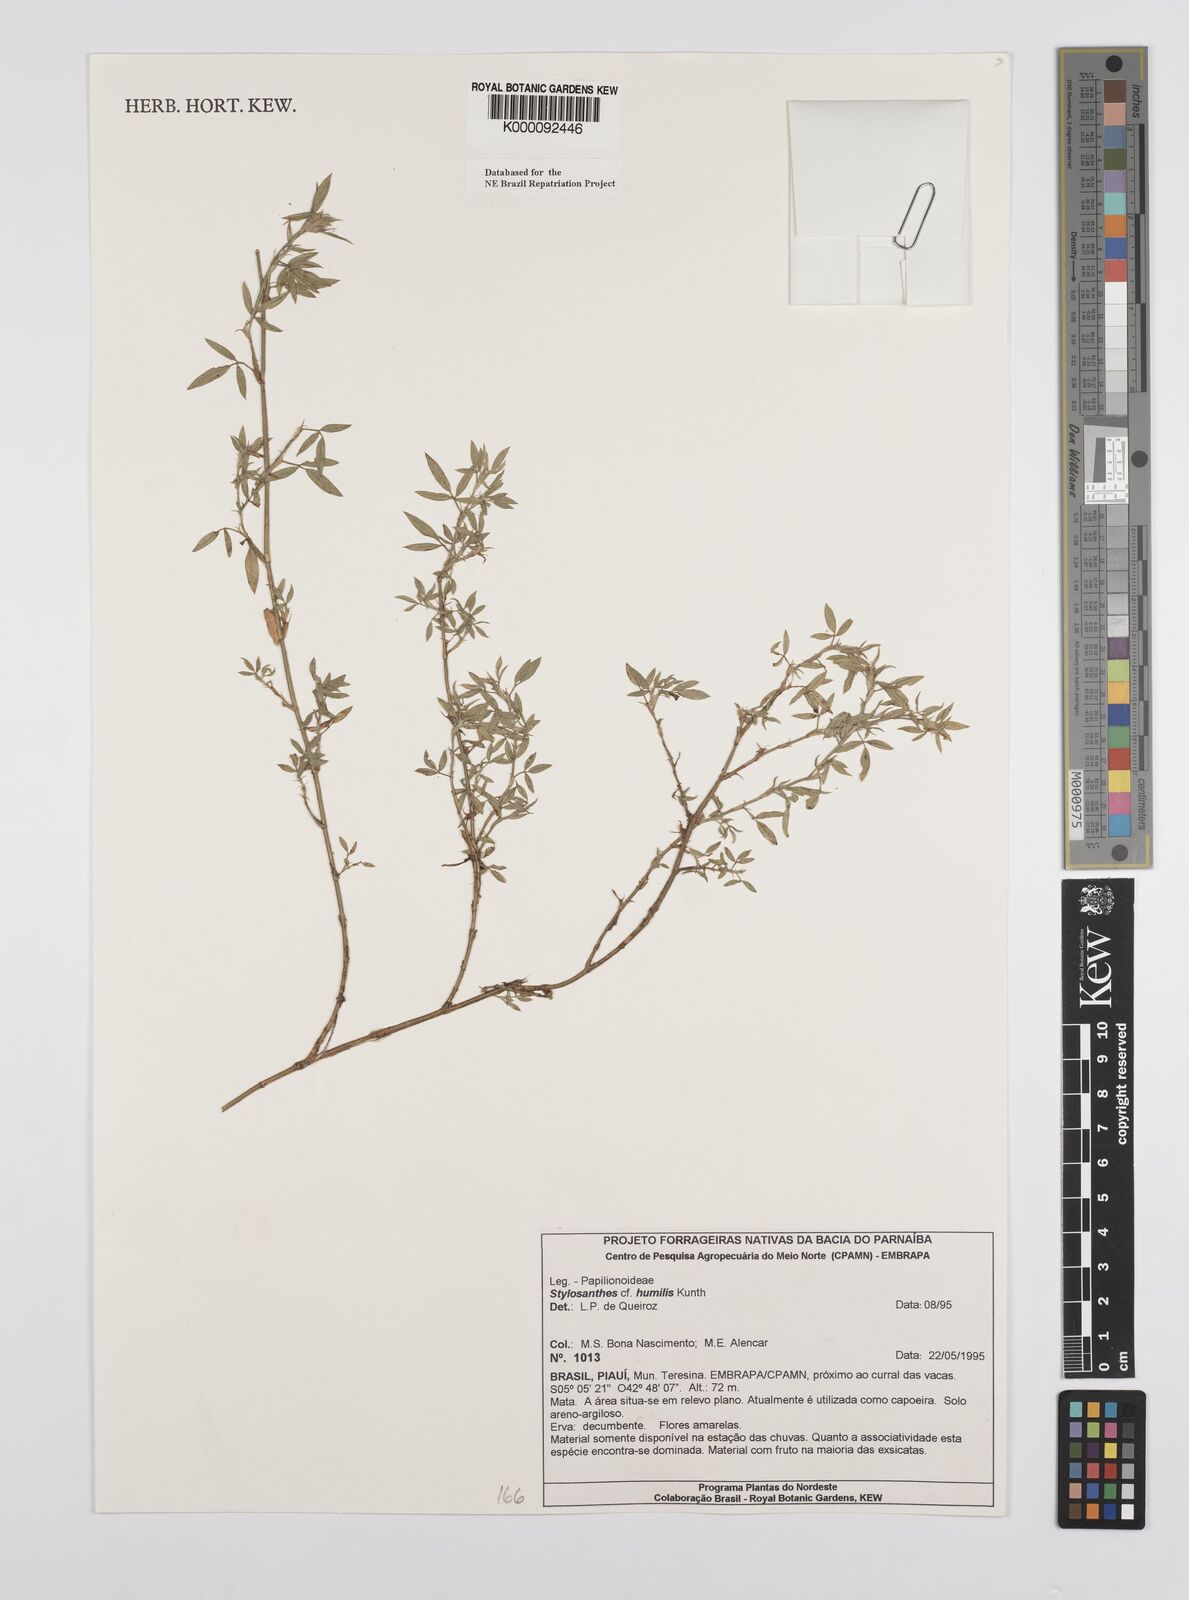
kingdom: Plantae
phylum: Tracheophyta
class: Magnoliopsida
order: Fabales
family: Fabaceae
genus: Stylosanthes
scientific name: Stylosanthes humilis
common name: Townsville stylo
